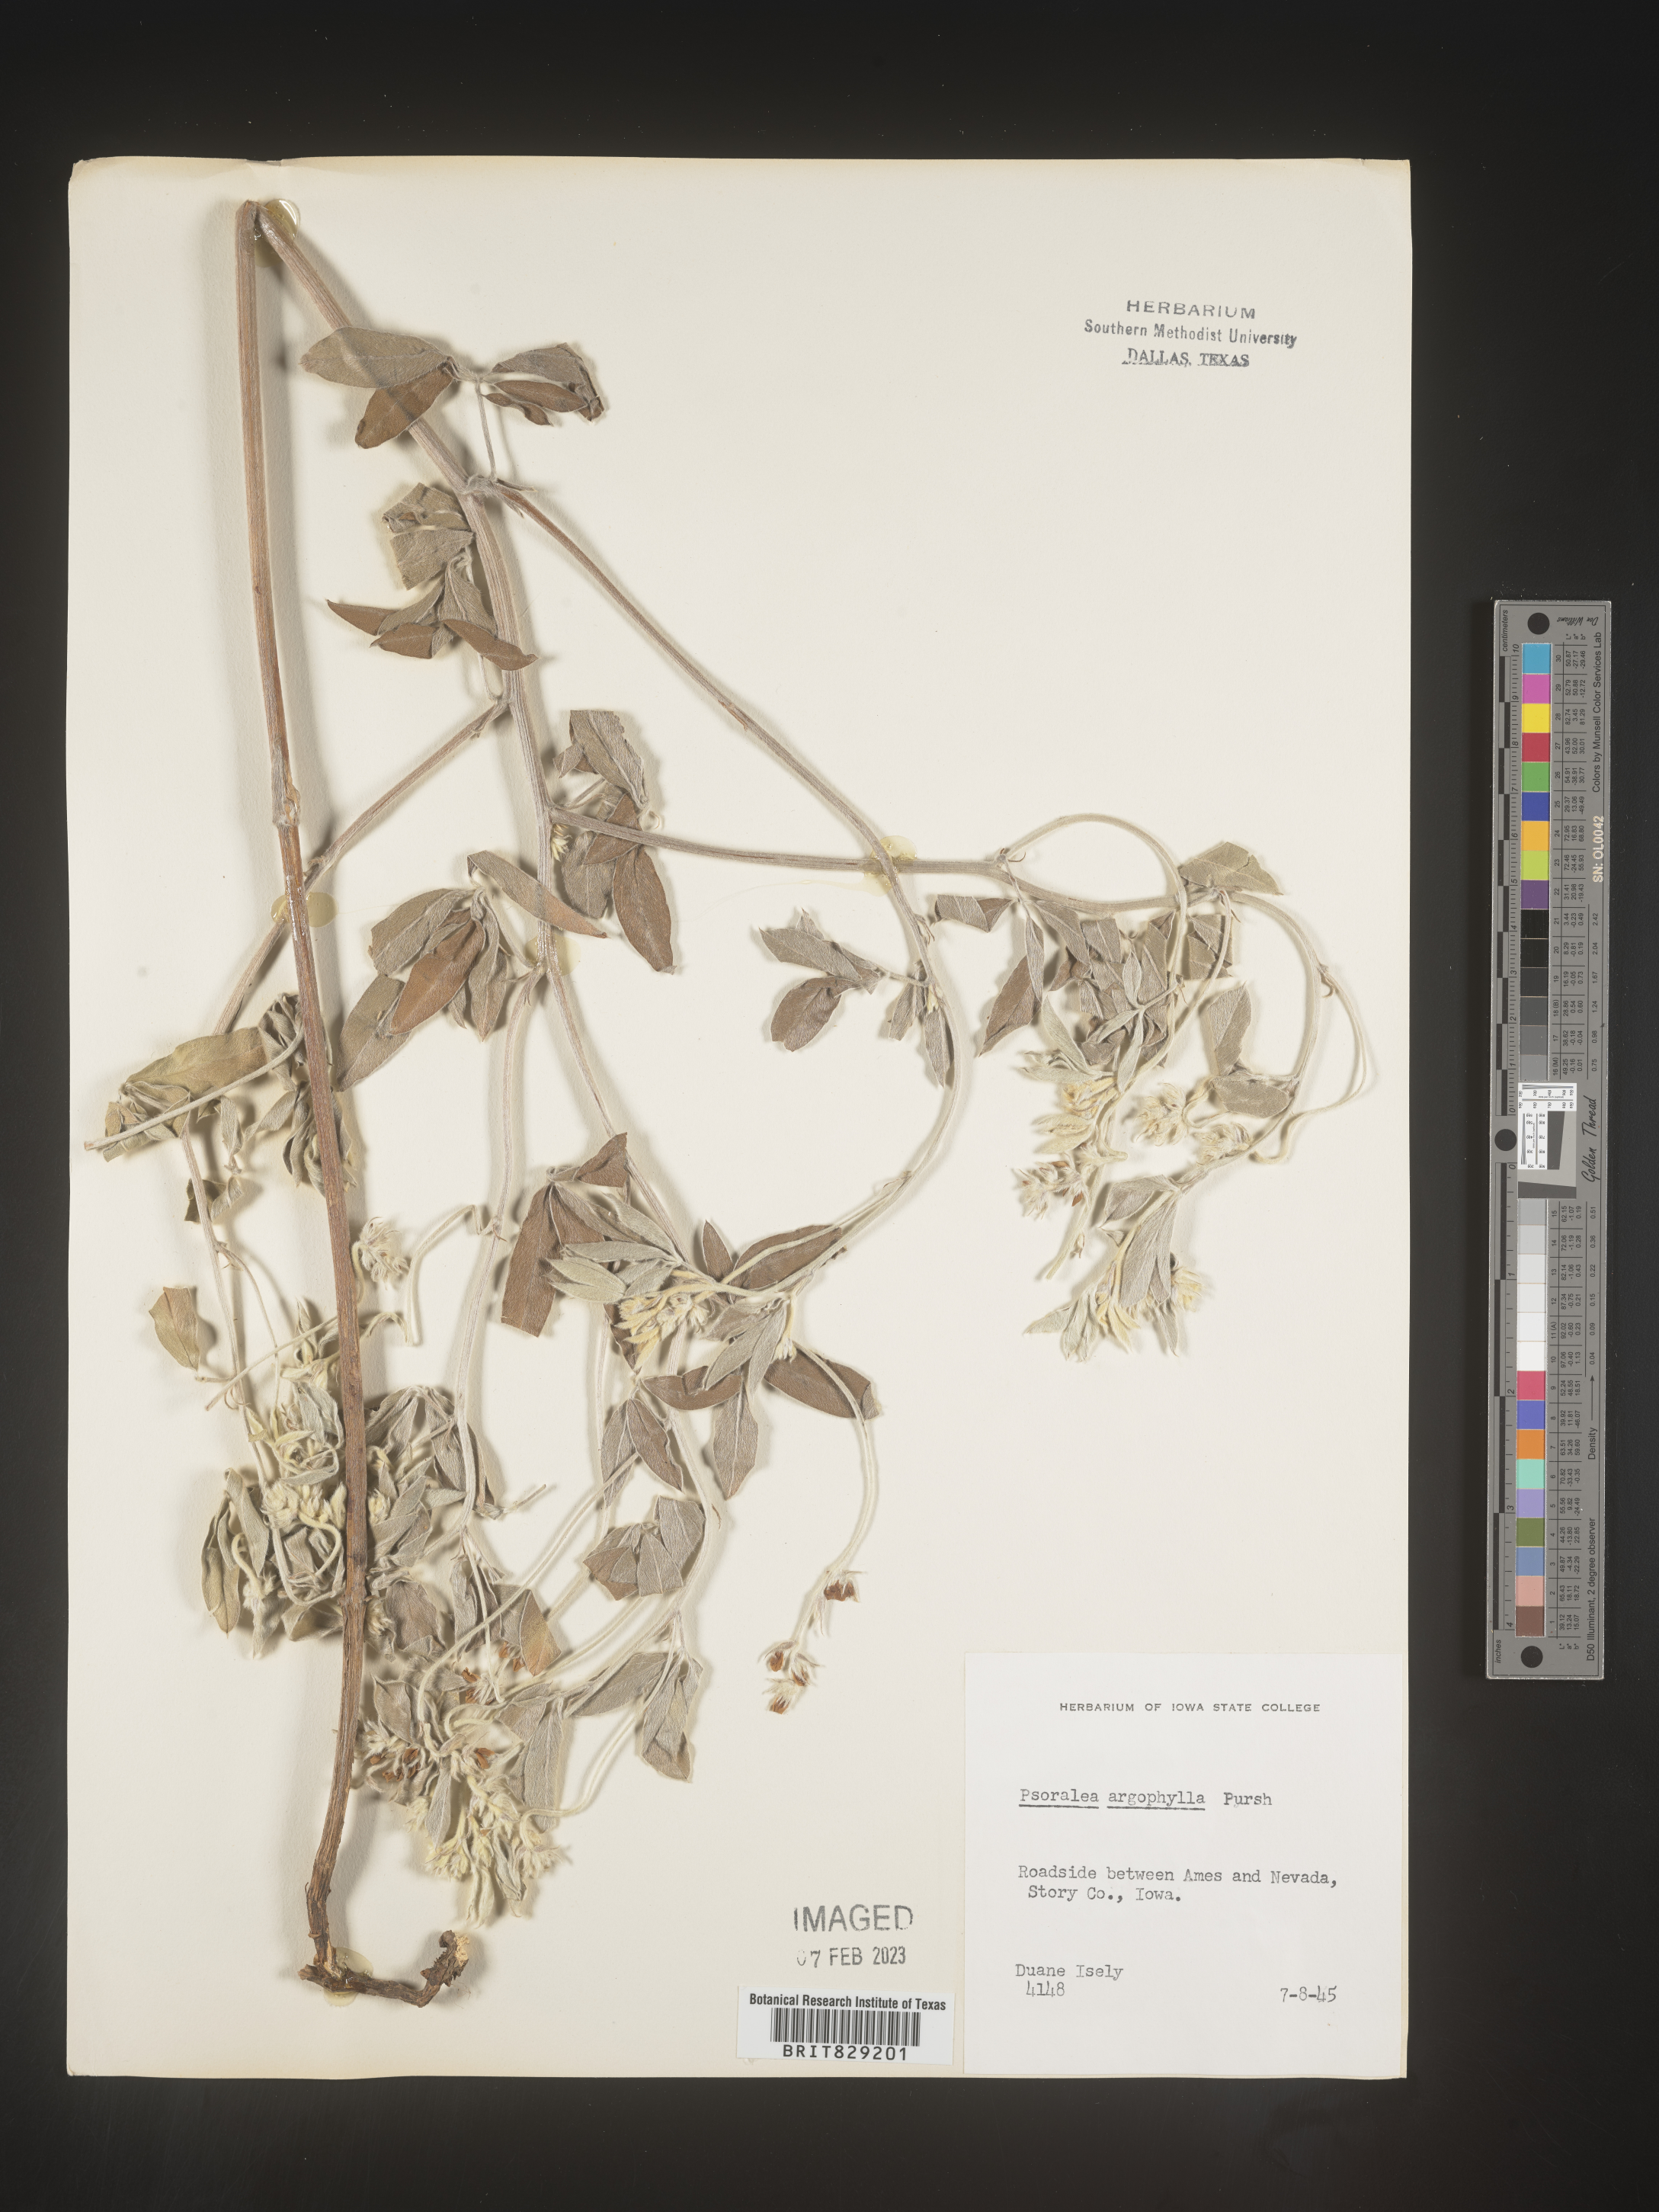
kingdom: Plantae
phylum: Tracheophyta
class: Magnoliopsida
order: Fabales
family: Fabaceae
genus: Pediomelum
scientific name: Pediomelum argophyllum
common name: Silver-leaved indian breadroot
